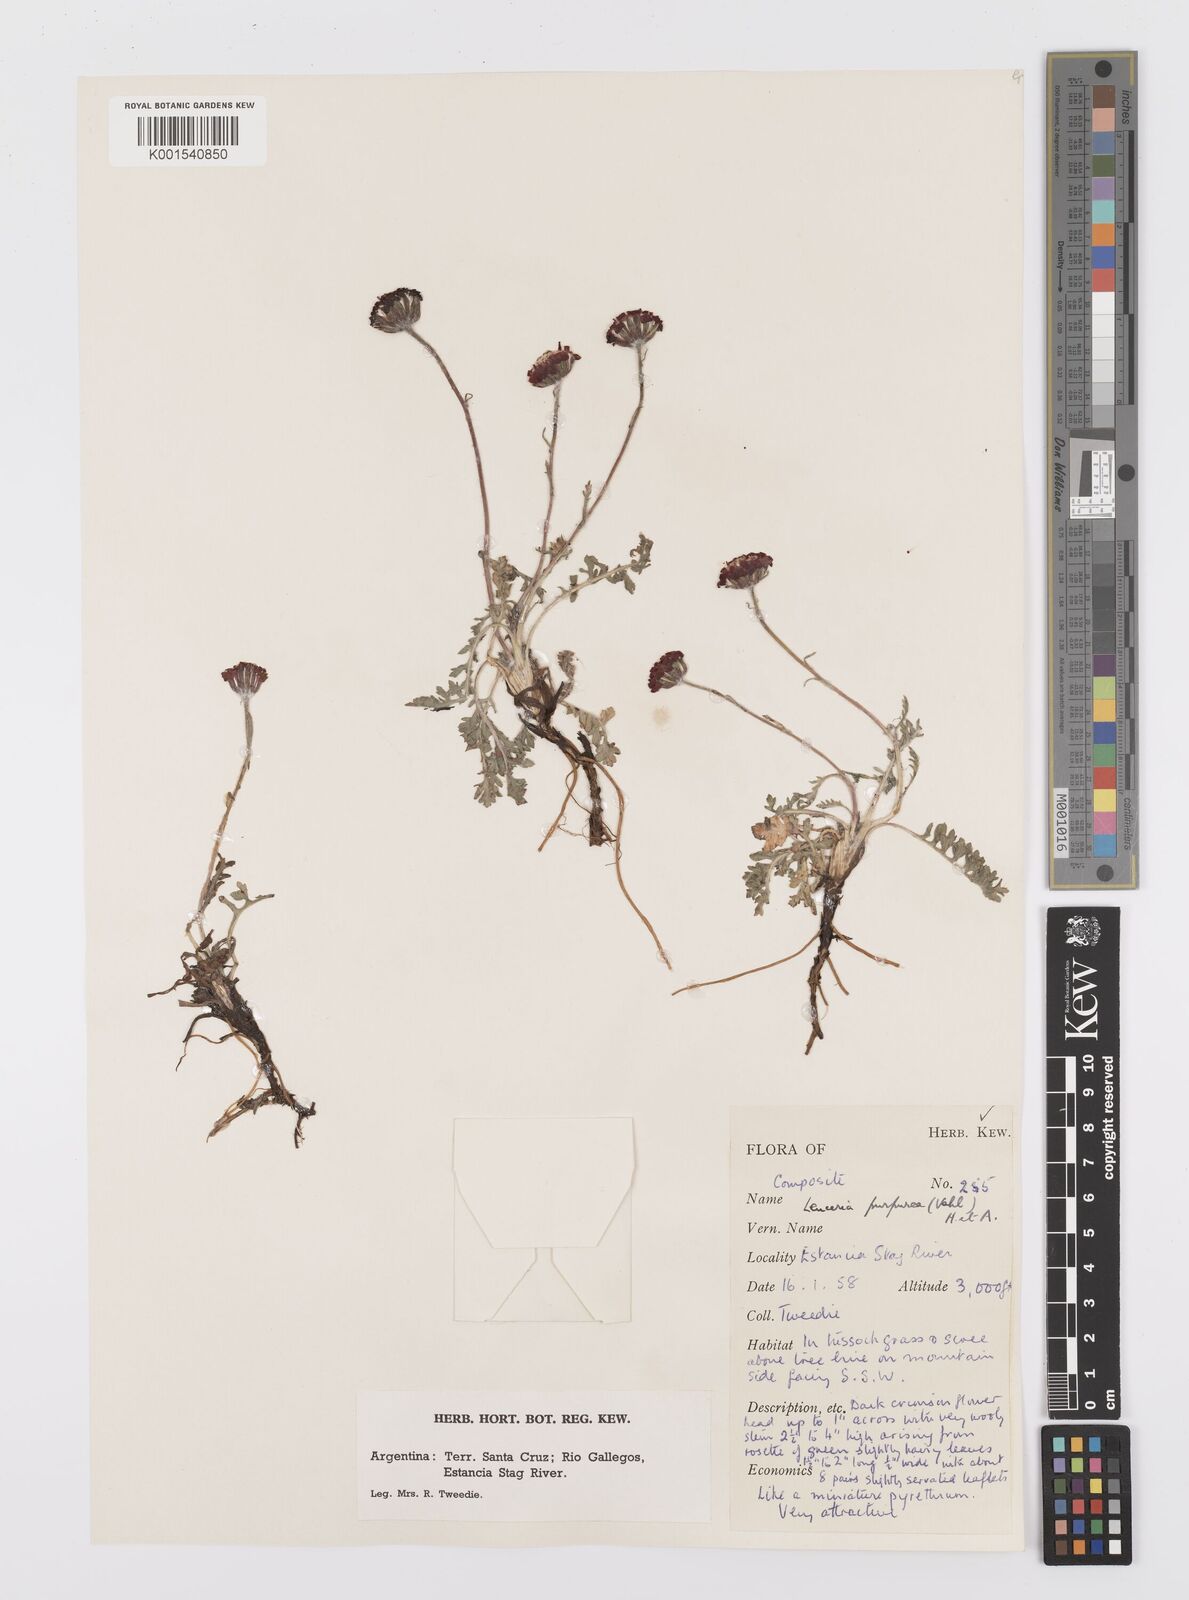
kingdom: Plantae
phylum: Tracheophyta
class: Magnoliopsida
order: Asterales
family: Asteraceae
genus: Leucheria
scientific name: Leucheria purpurea
